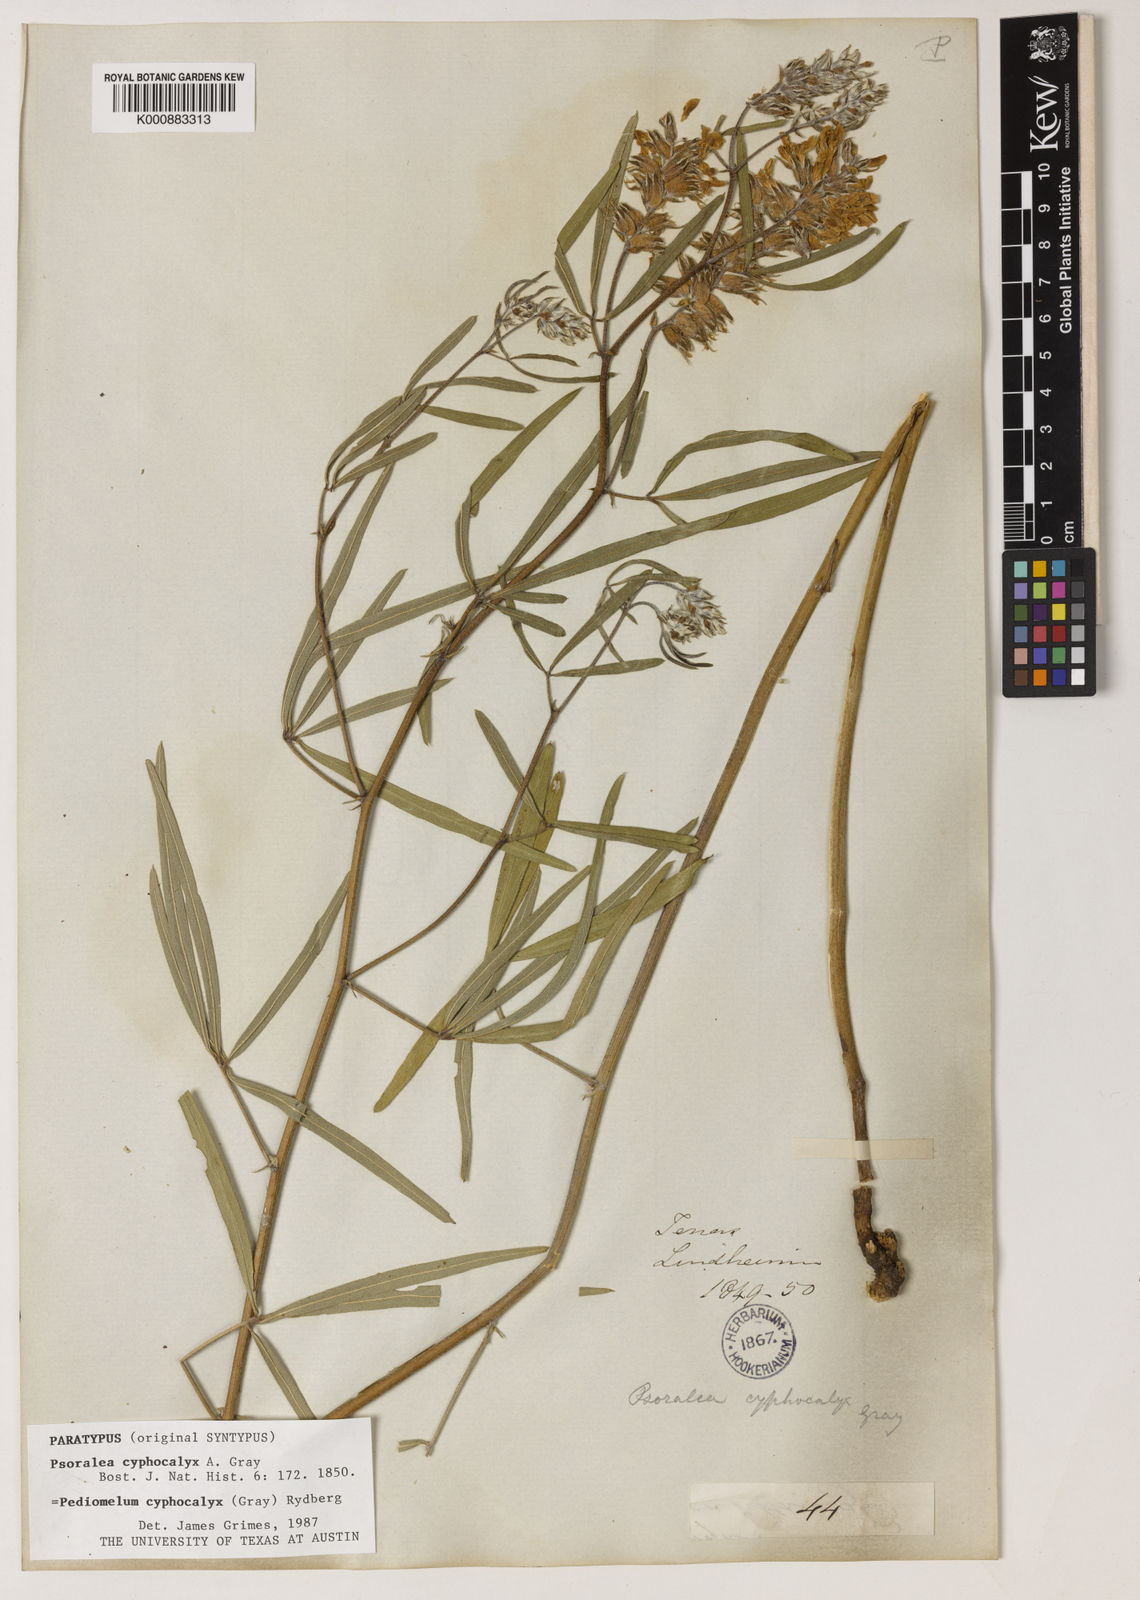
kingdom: Plantae
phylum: Tracheophyta
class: Magnoliopsida
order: Fabales
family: Fabaceae
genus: Pediomelum
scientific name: Pediomelum cyphocalyx
